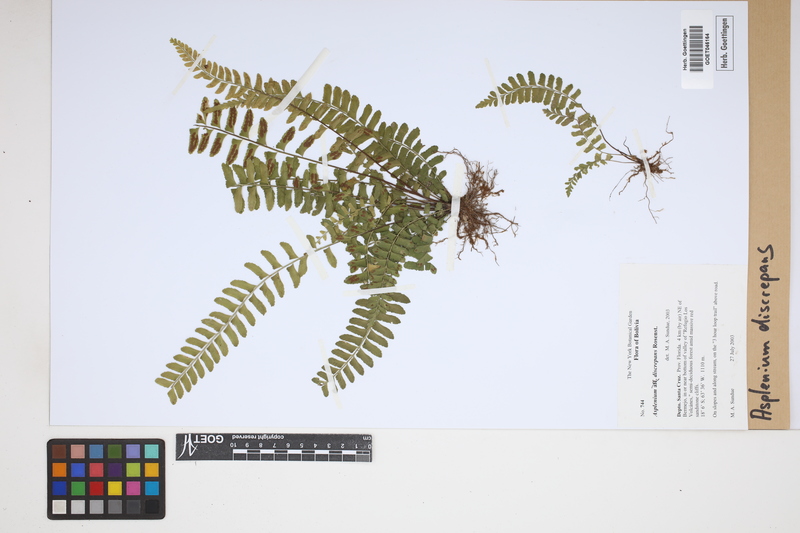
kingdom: Plantae
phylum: Tracheophyta
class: Polypodiopsida
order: Polypodiales
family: Aspleniaceae
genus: Asplenium
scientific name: Asplenium discrepans
